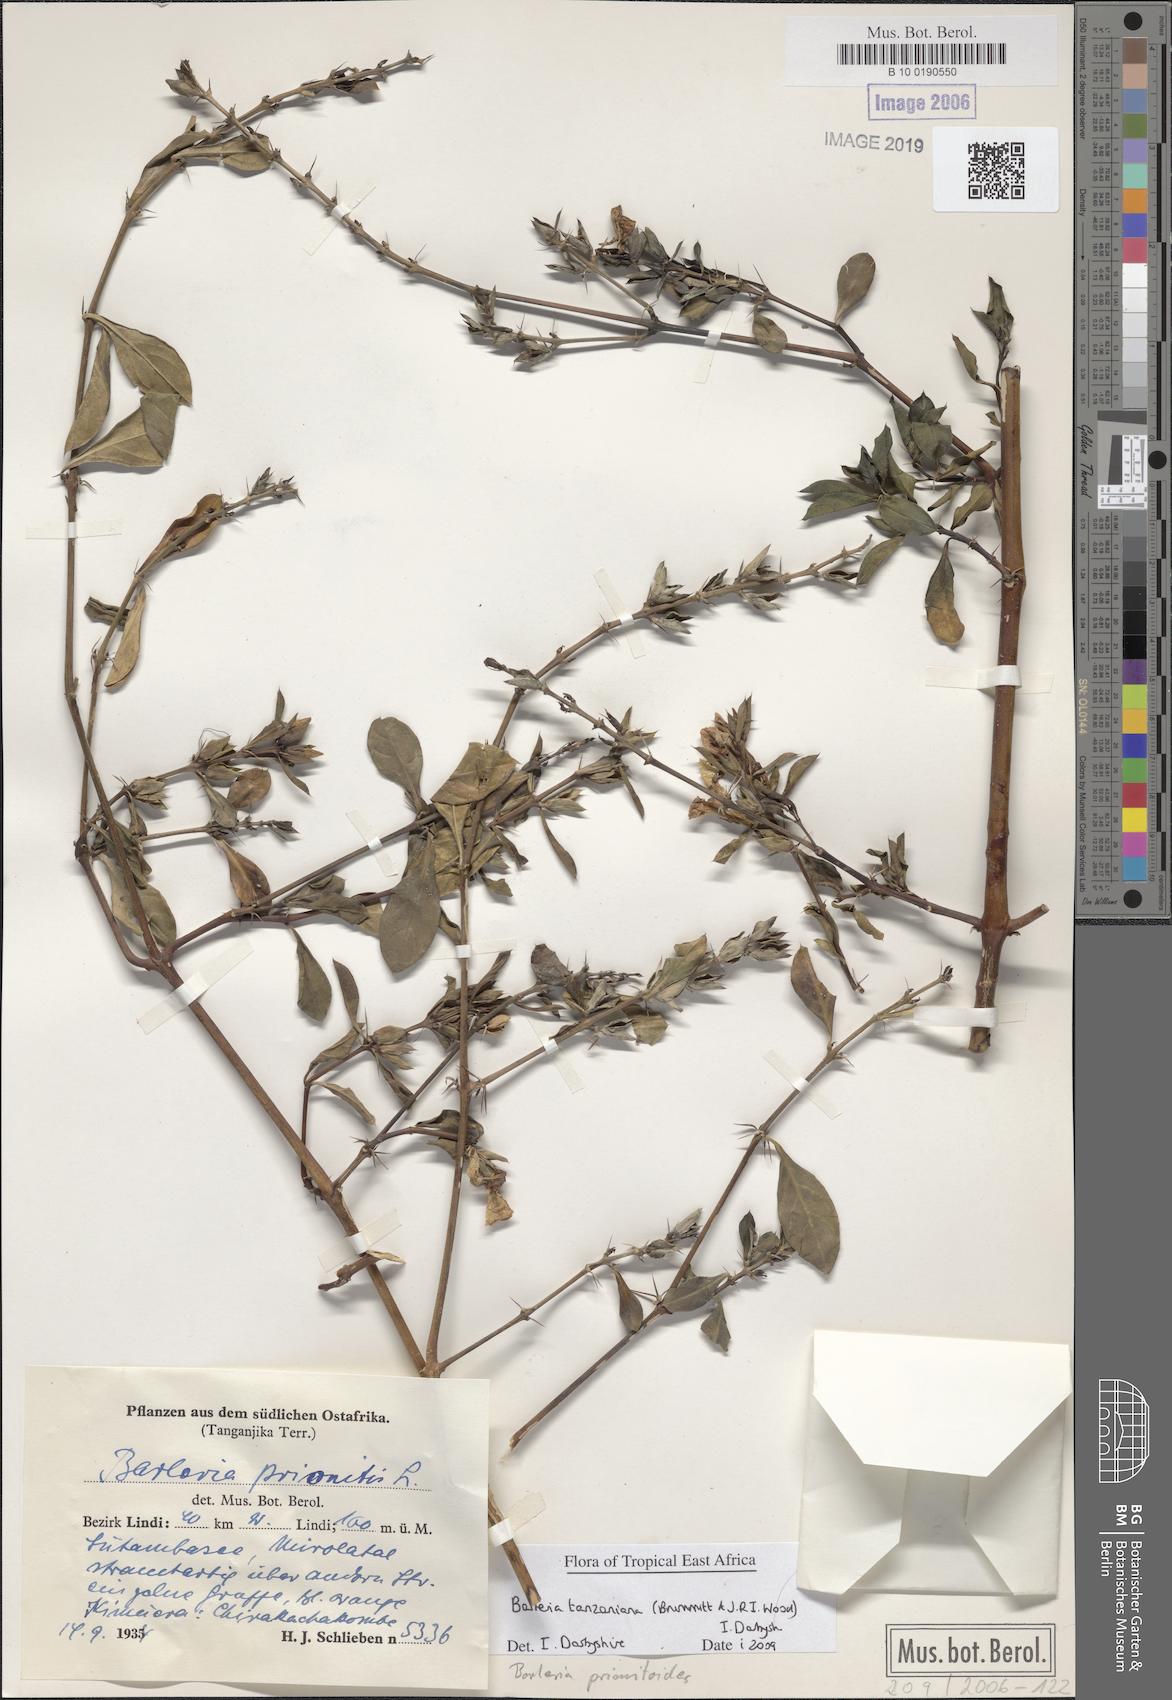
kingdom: Plantae
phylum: Tracheophyta
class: Magnoliopsida
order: Lamiales
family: Acanthaceae
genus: Barleria
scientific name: Barleria prionitis
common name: Barleria
